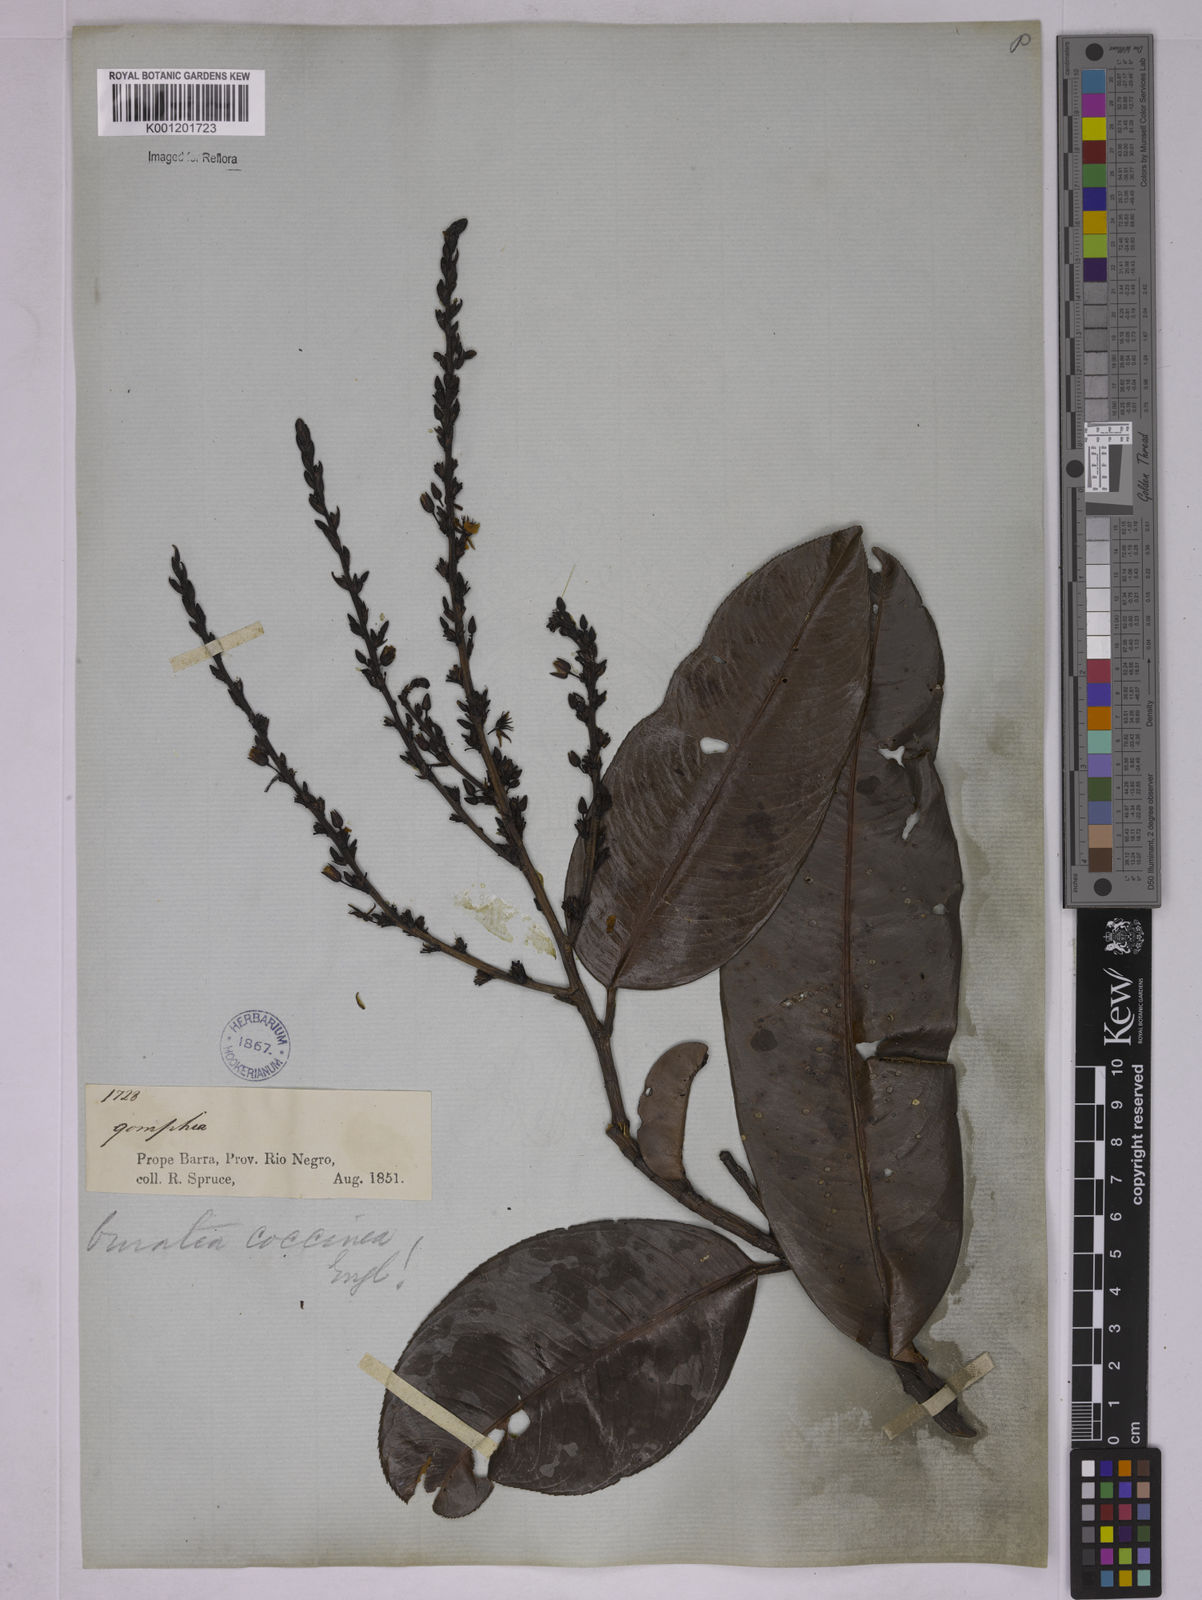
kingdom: Plantae
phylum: Tracheophyta
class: Magnoliopsida
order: Malpighiales
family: Ochnaceae
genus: Ouratea
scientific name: Ouratea coccinea
